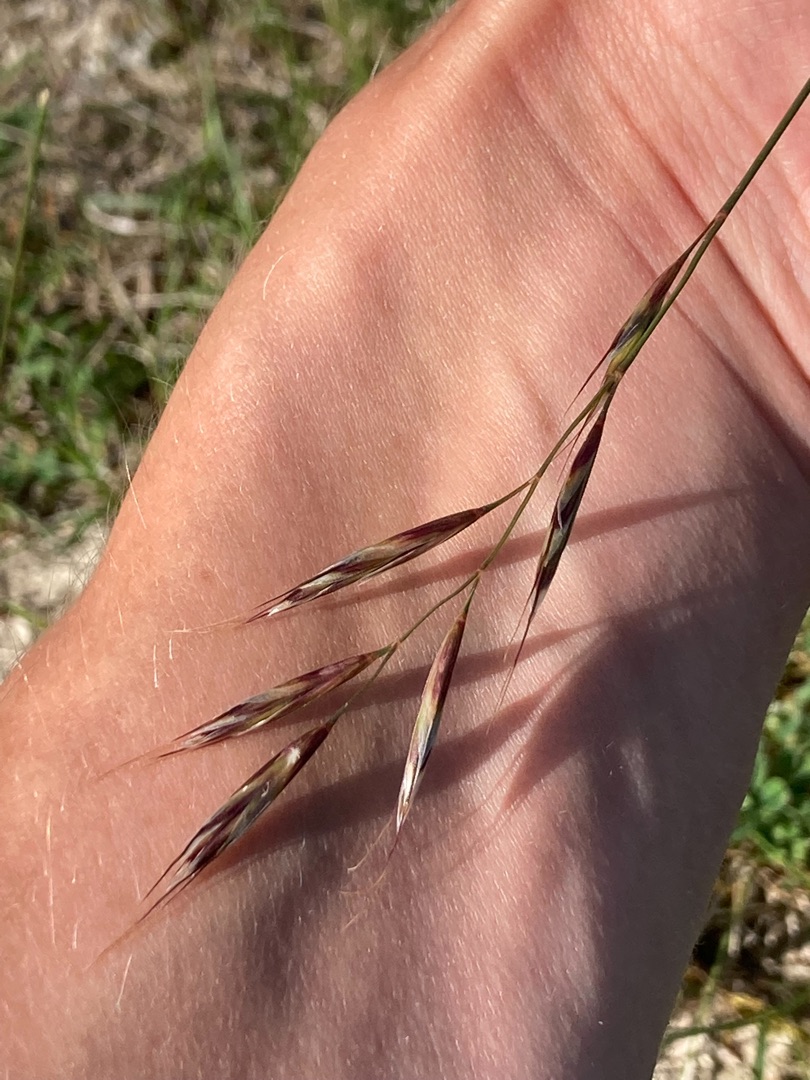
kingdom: Plantae
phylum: Tracheophyta
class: Liliopsida
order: Poales
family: Poaceae
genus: Helictochloa
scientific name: Helictochloa pratensis
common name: Eng-havre
